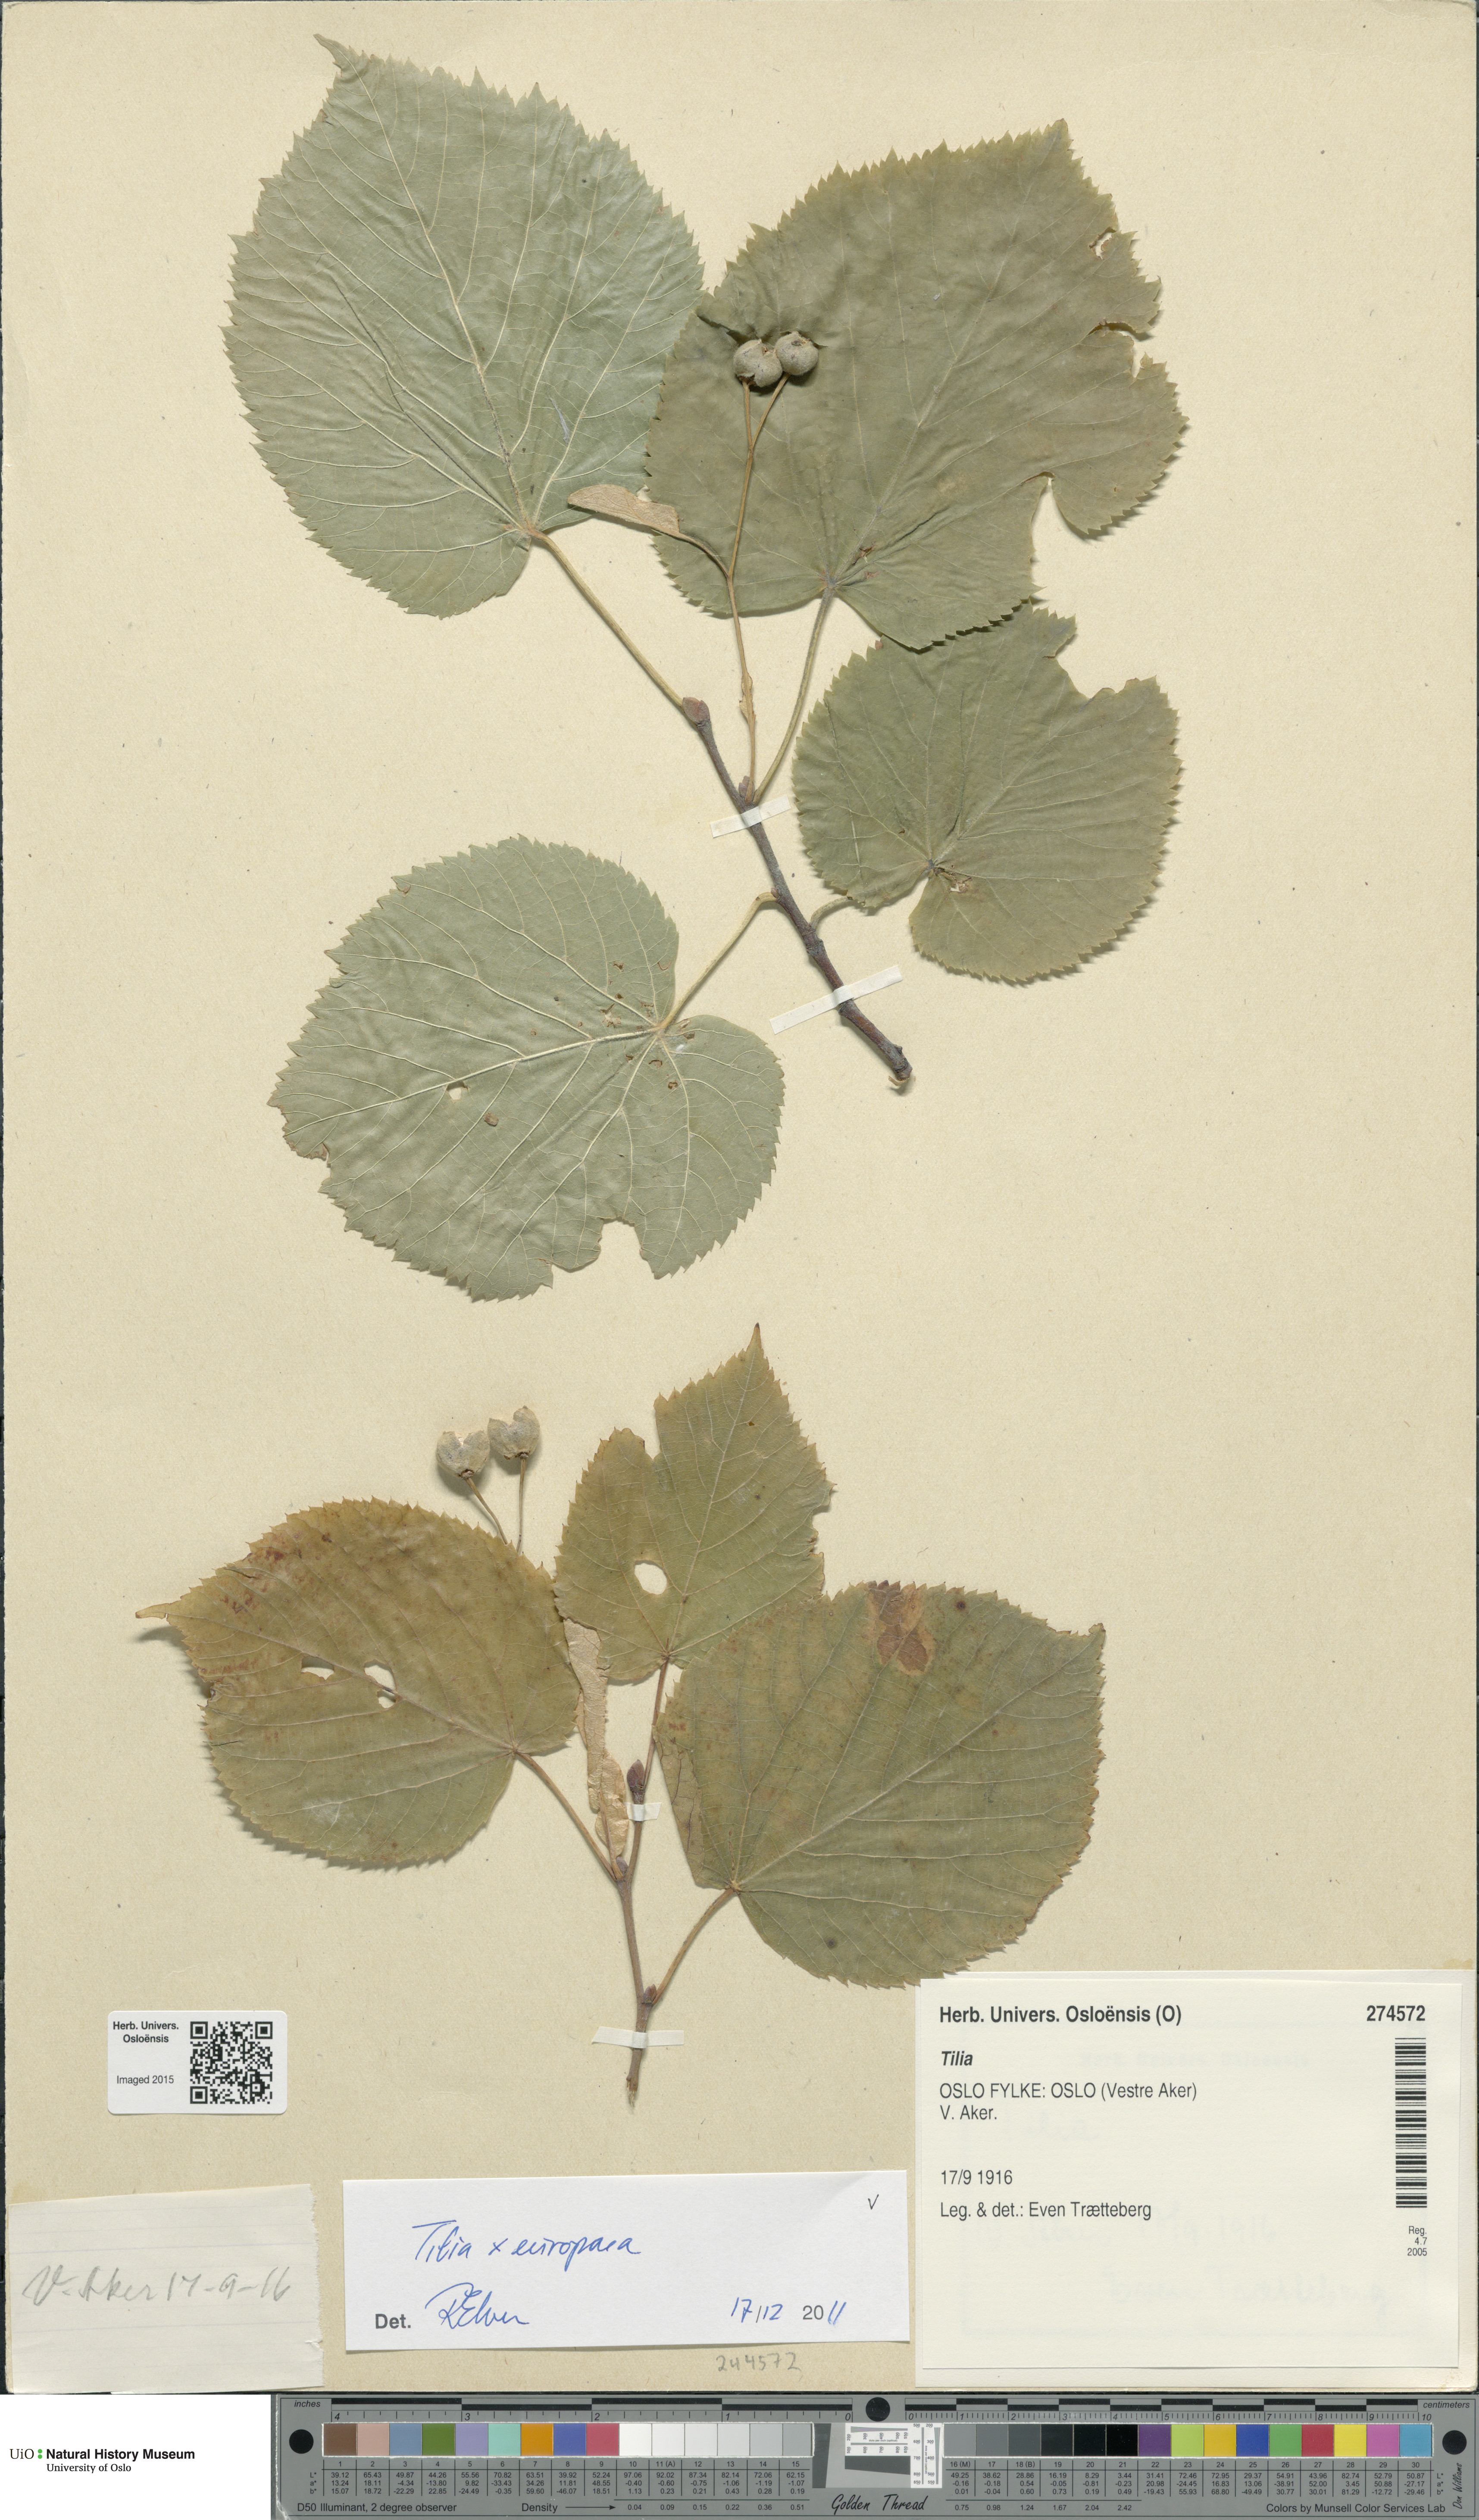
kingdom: Plantae
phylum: Tracheophyta
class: Magnoliopsida
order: Malvales
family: Malvaceae
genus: Tilia
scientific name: Tilia europaea
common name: European linden
